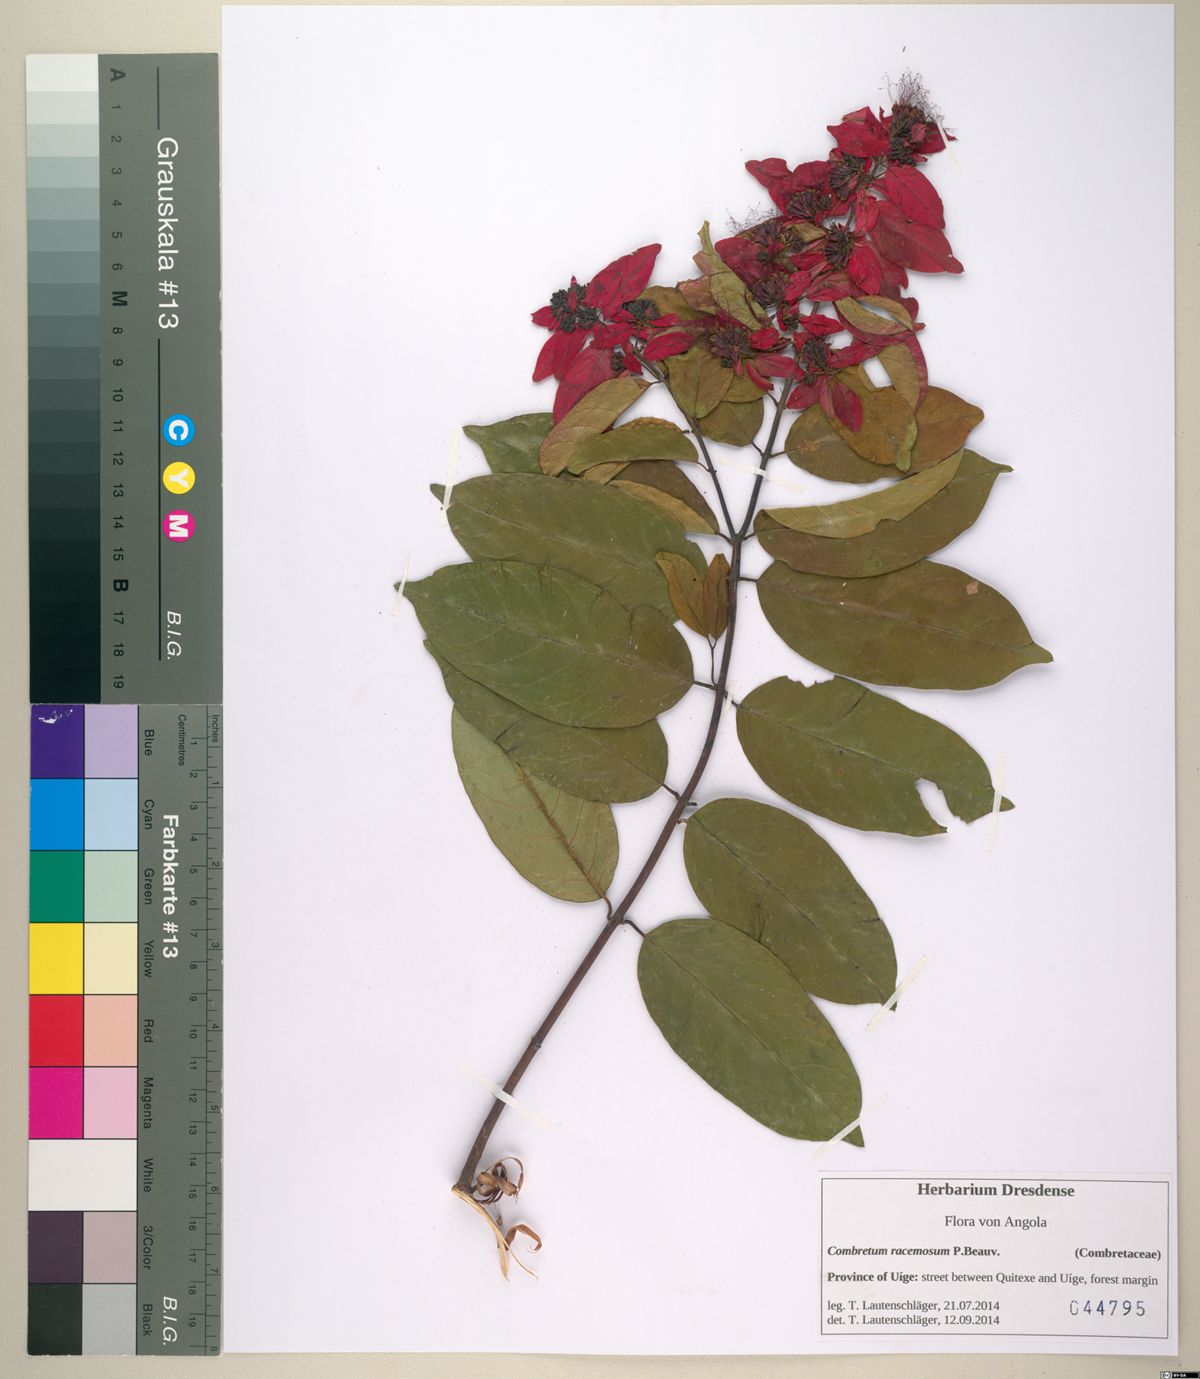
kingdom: Plantae
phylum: Tracheophyta
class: Magnoliopsida
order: Myrtales
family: Combretaceae
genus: Combretum
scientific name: Combretum racemosum
